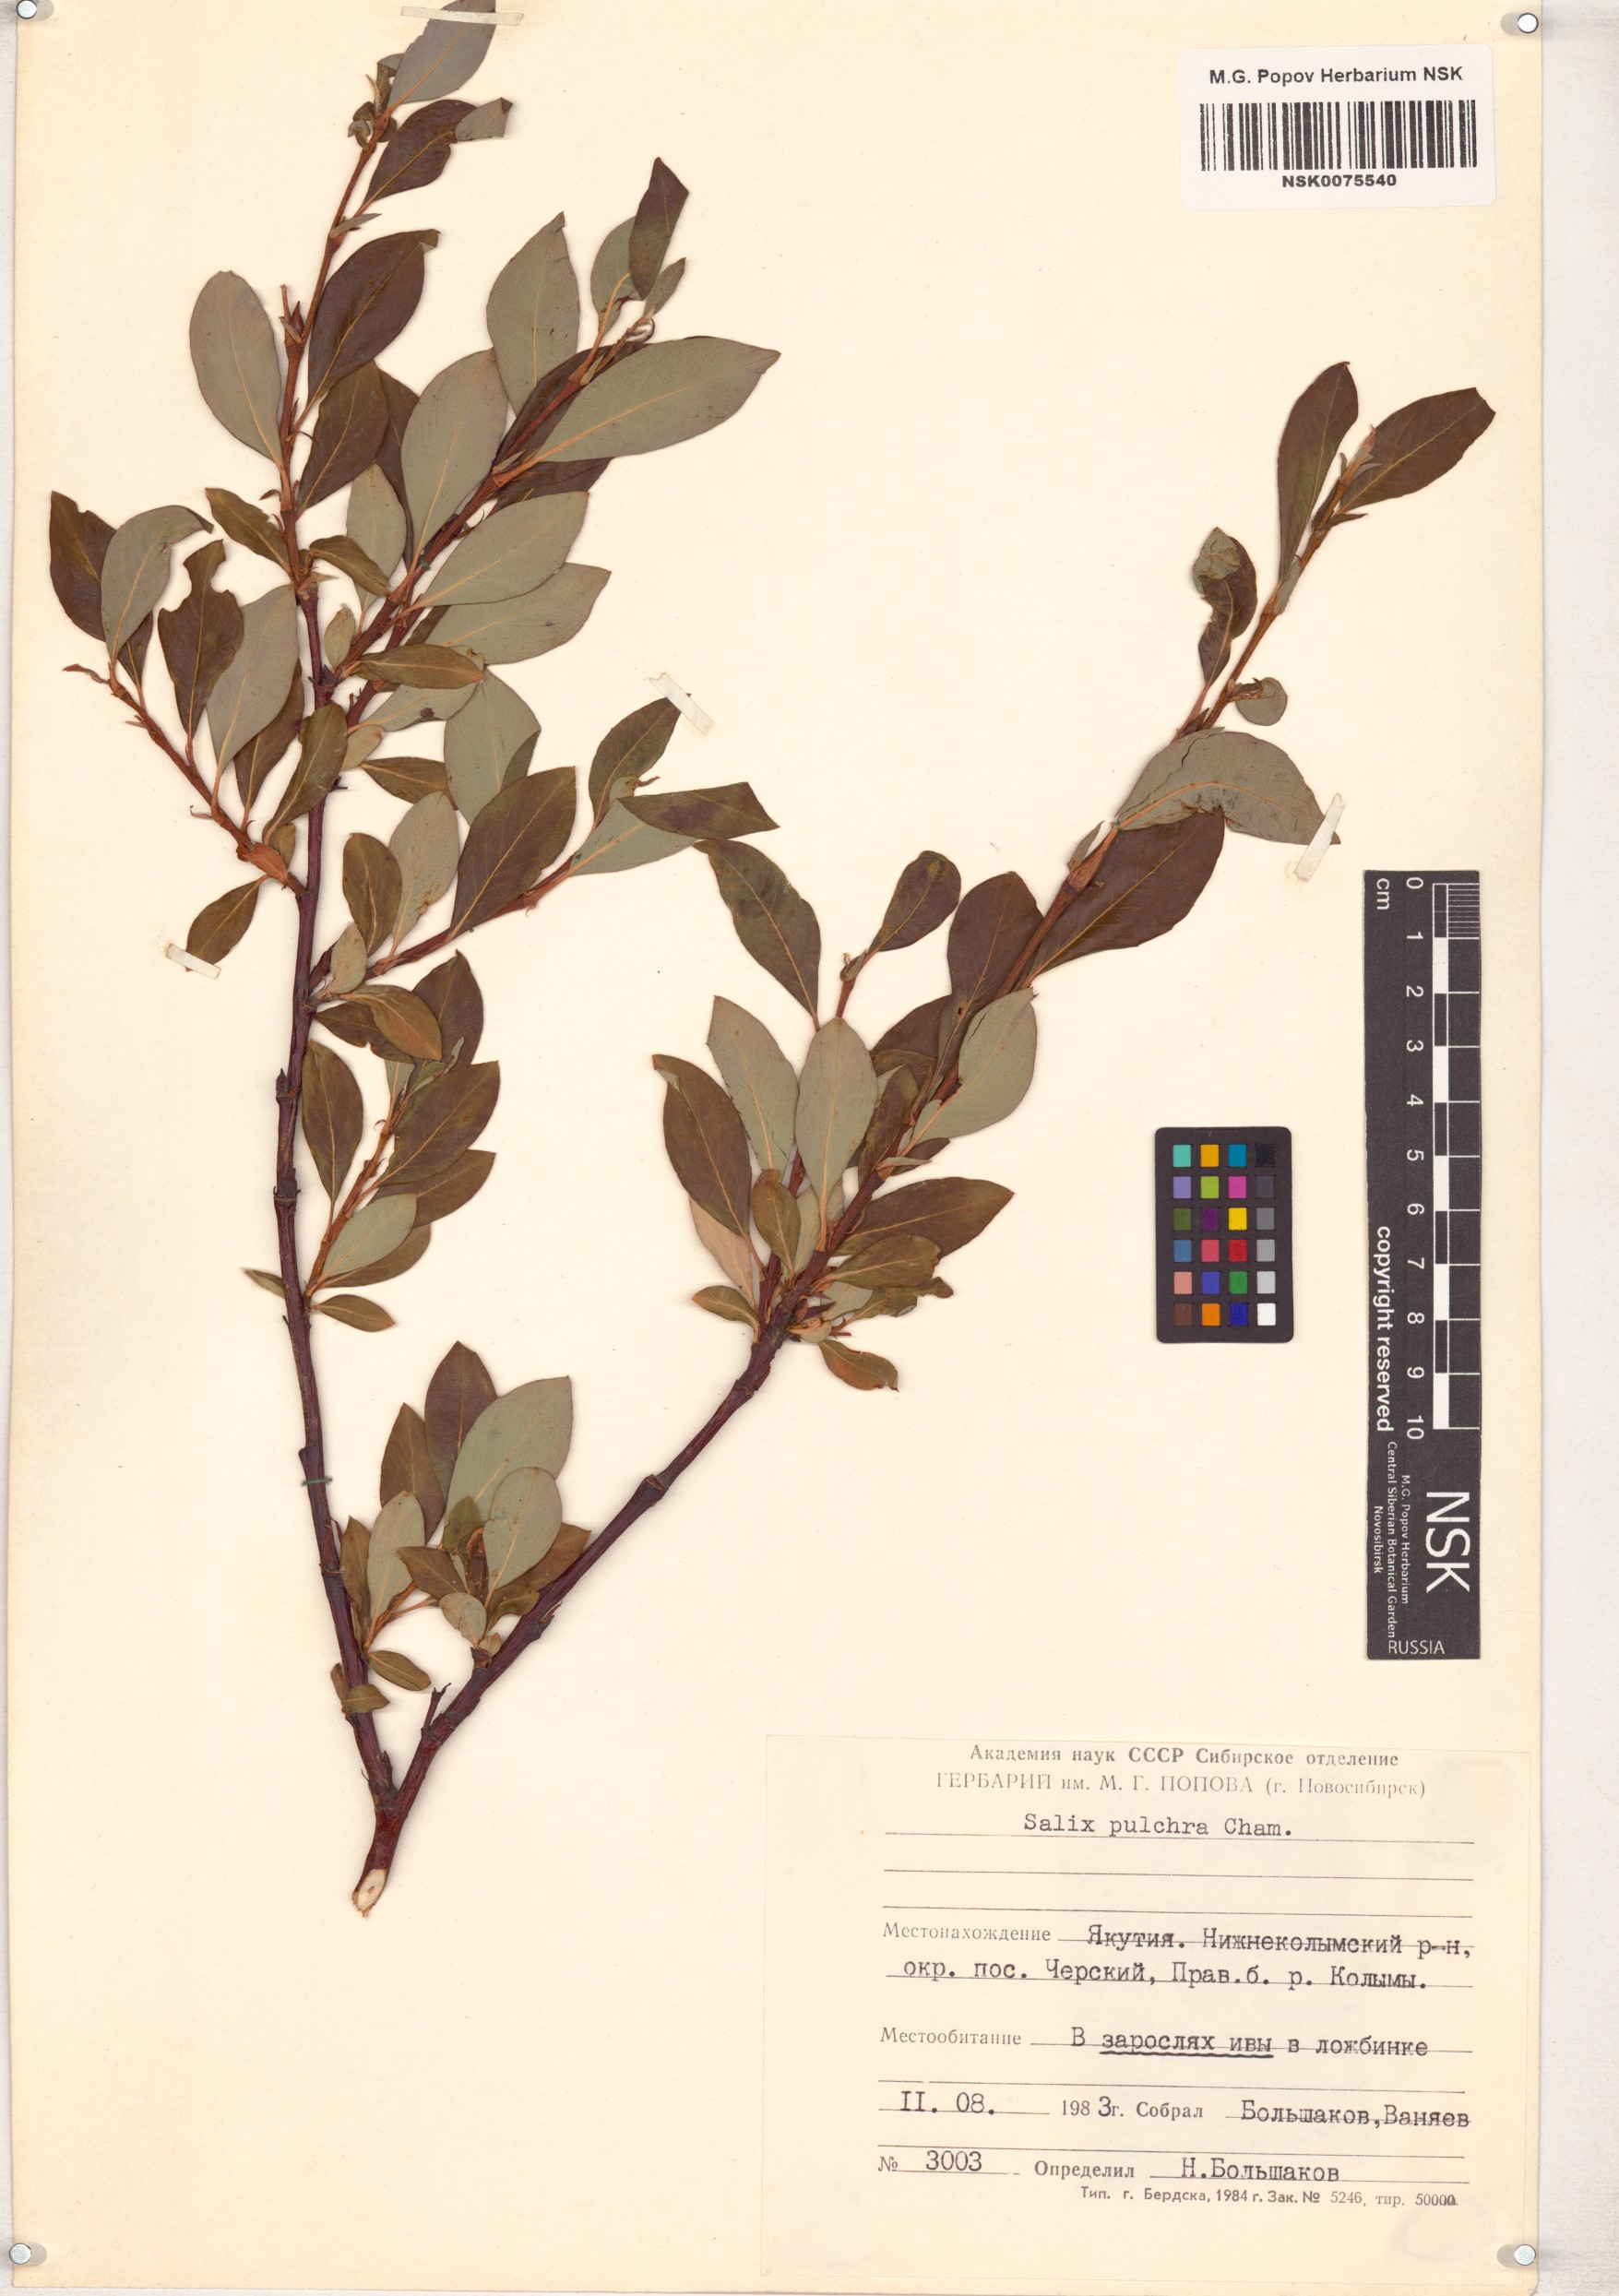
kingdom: Plantae
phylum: Tracheophyta
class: Magnoliopsida
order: Malpighiales
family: Salicaceae
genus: Salix
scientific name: Salix pulchra
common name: Diamond-leaved willow
